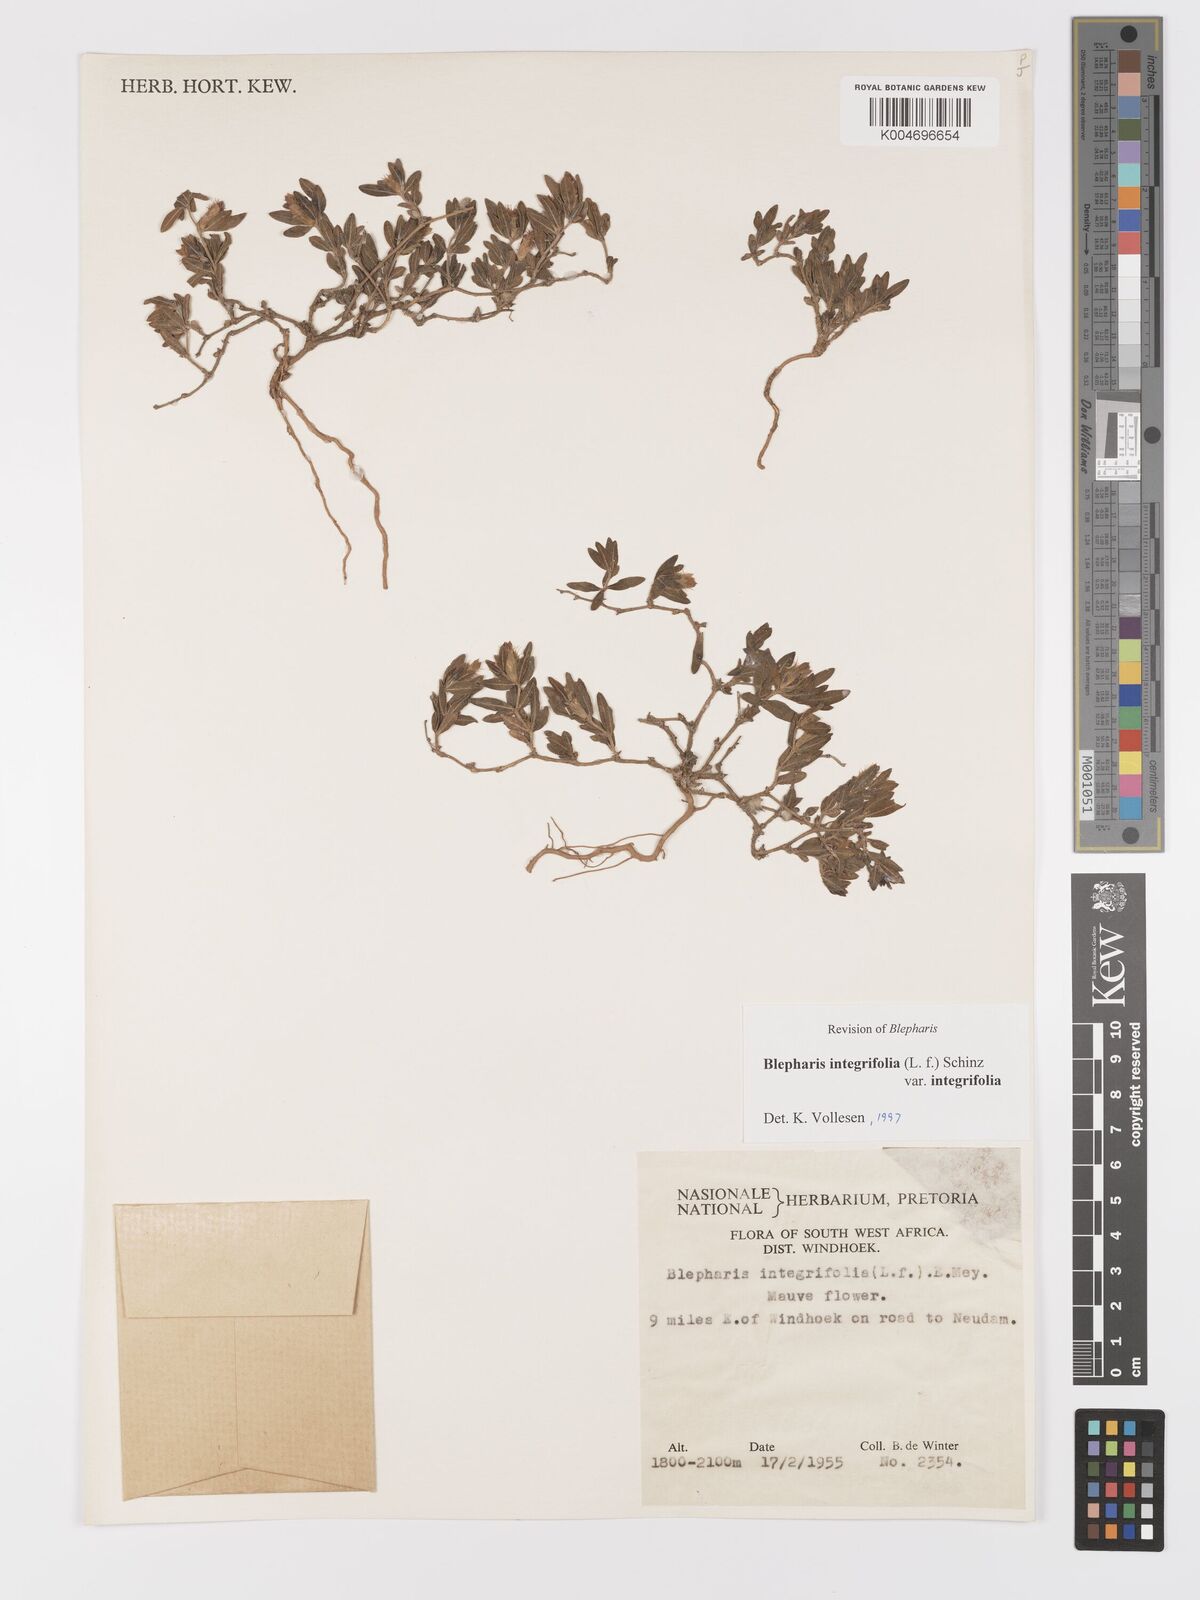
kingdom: Plantae
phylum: Tracheophyta
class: Magnoliopsida
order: Lamiales
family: Acanthaceae
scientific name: Acanthaceae
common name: Acanthaceae
